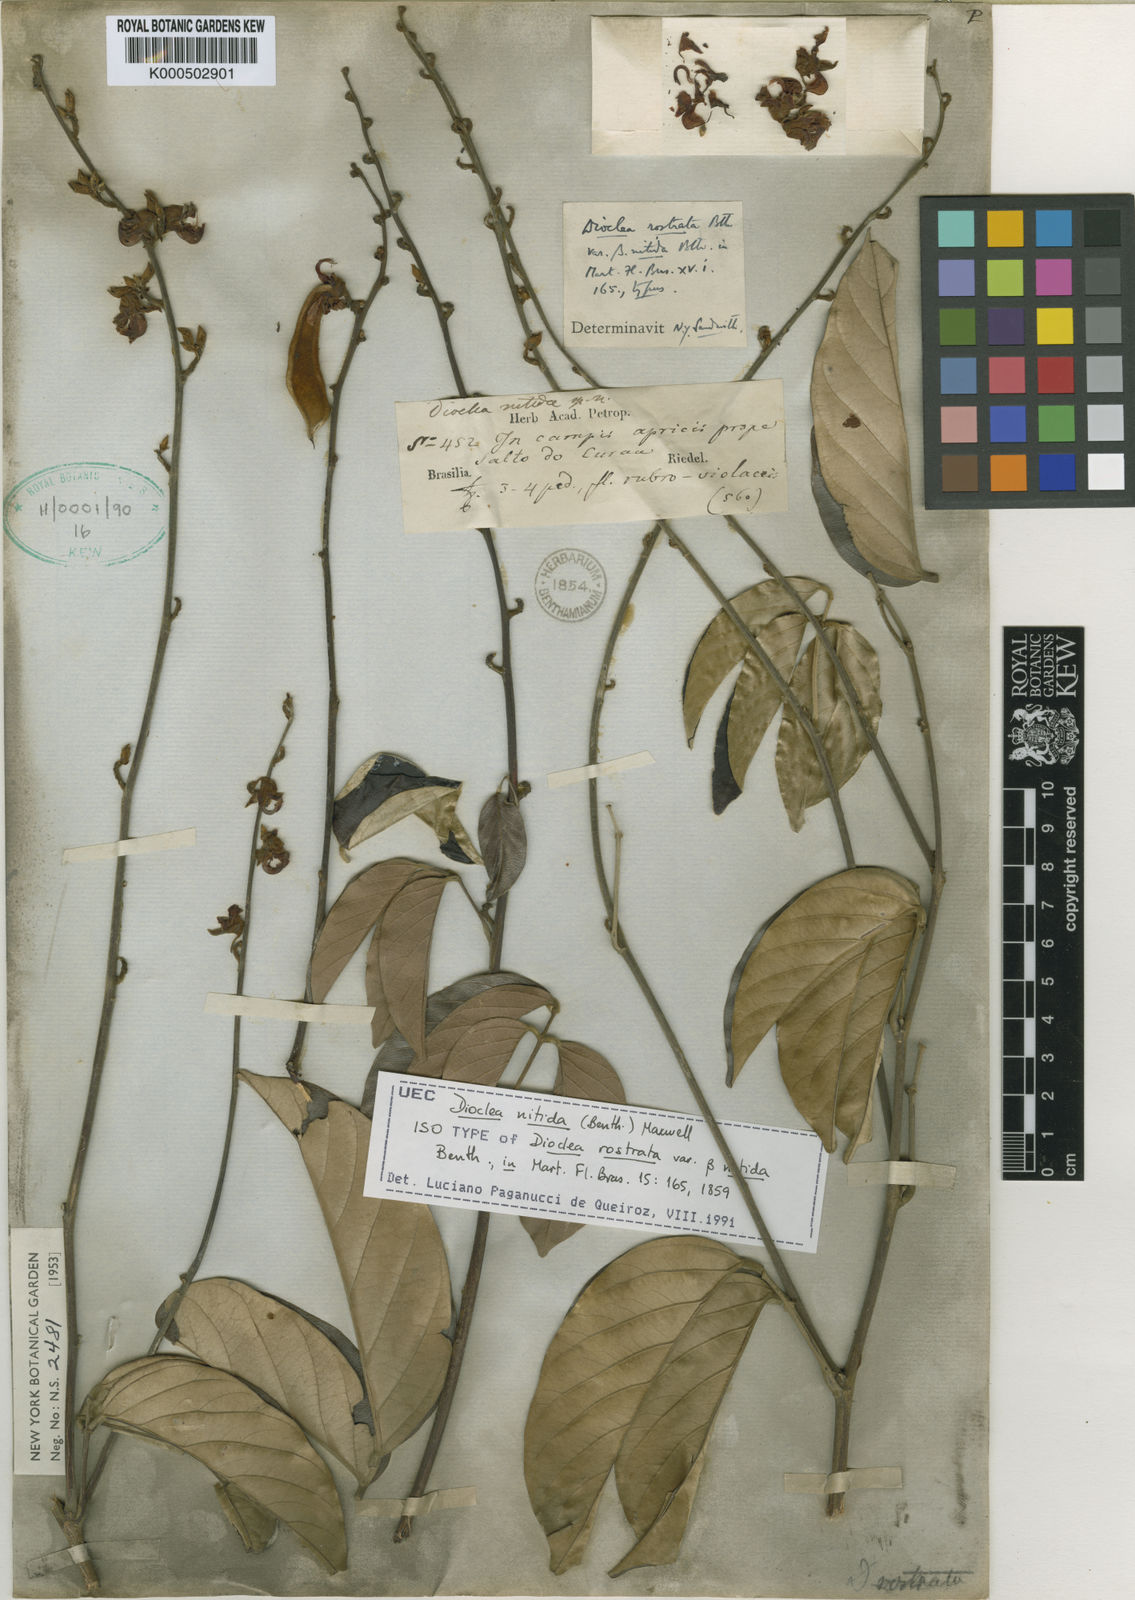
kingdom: Plantae
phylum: Tracheophyta
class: Magnoliopsida
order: Fabales
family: Fabaceae
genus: Dioclea
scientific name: Dioclea
